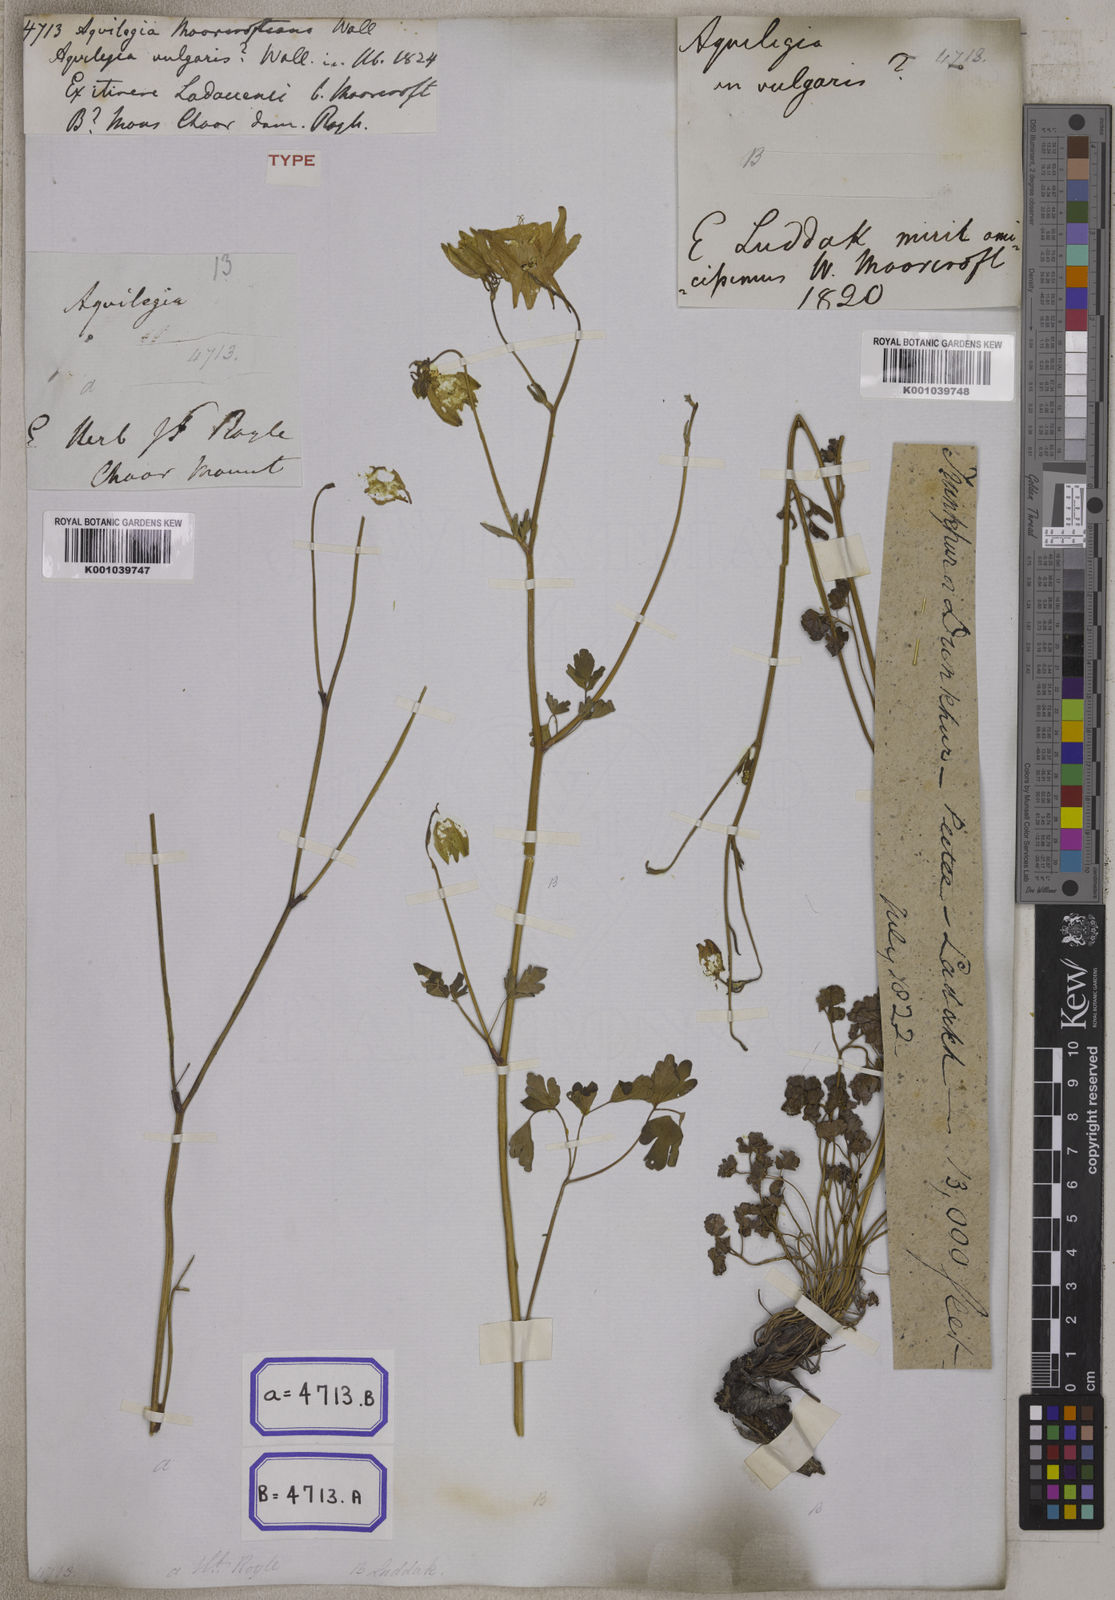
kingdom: Plantae
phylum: Tracheophyta
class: Magnoliopsida
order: Ranunculales
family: Ranunculaceae
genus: Aquilegia
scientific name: Aquilegia
